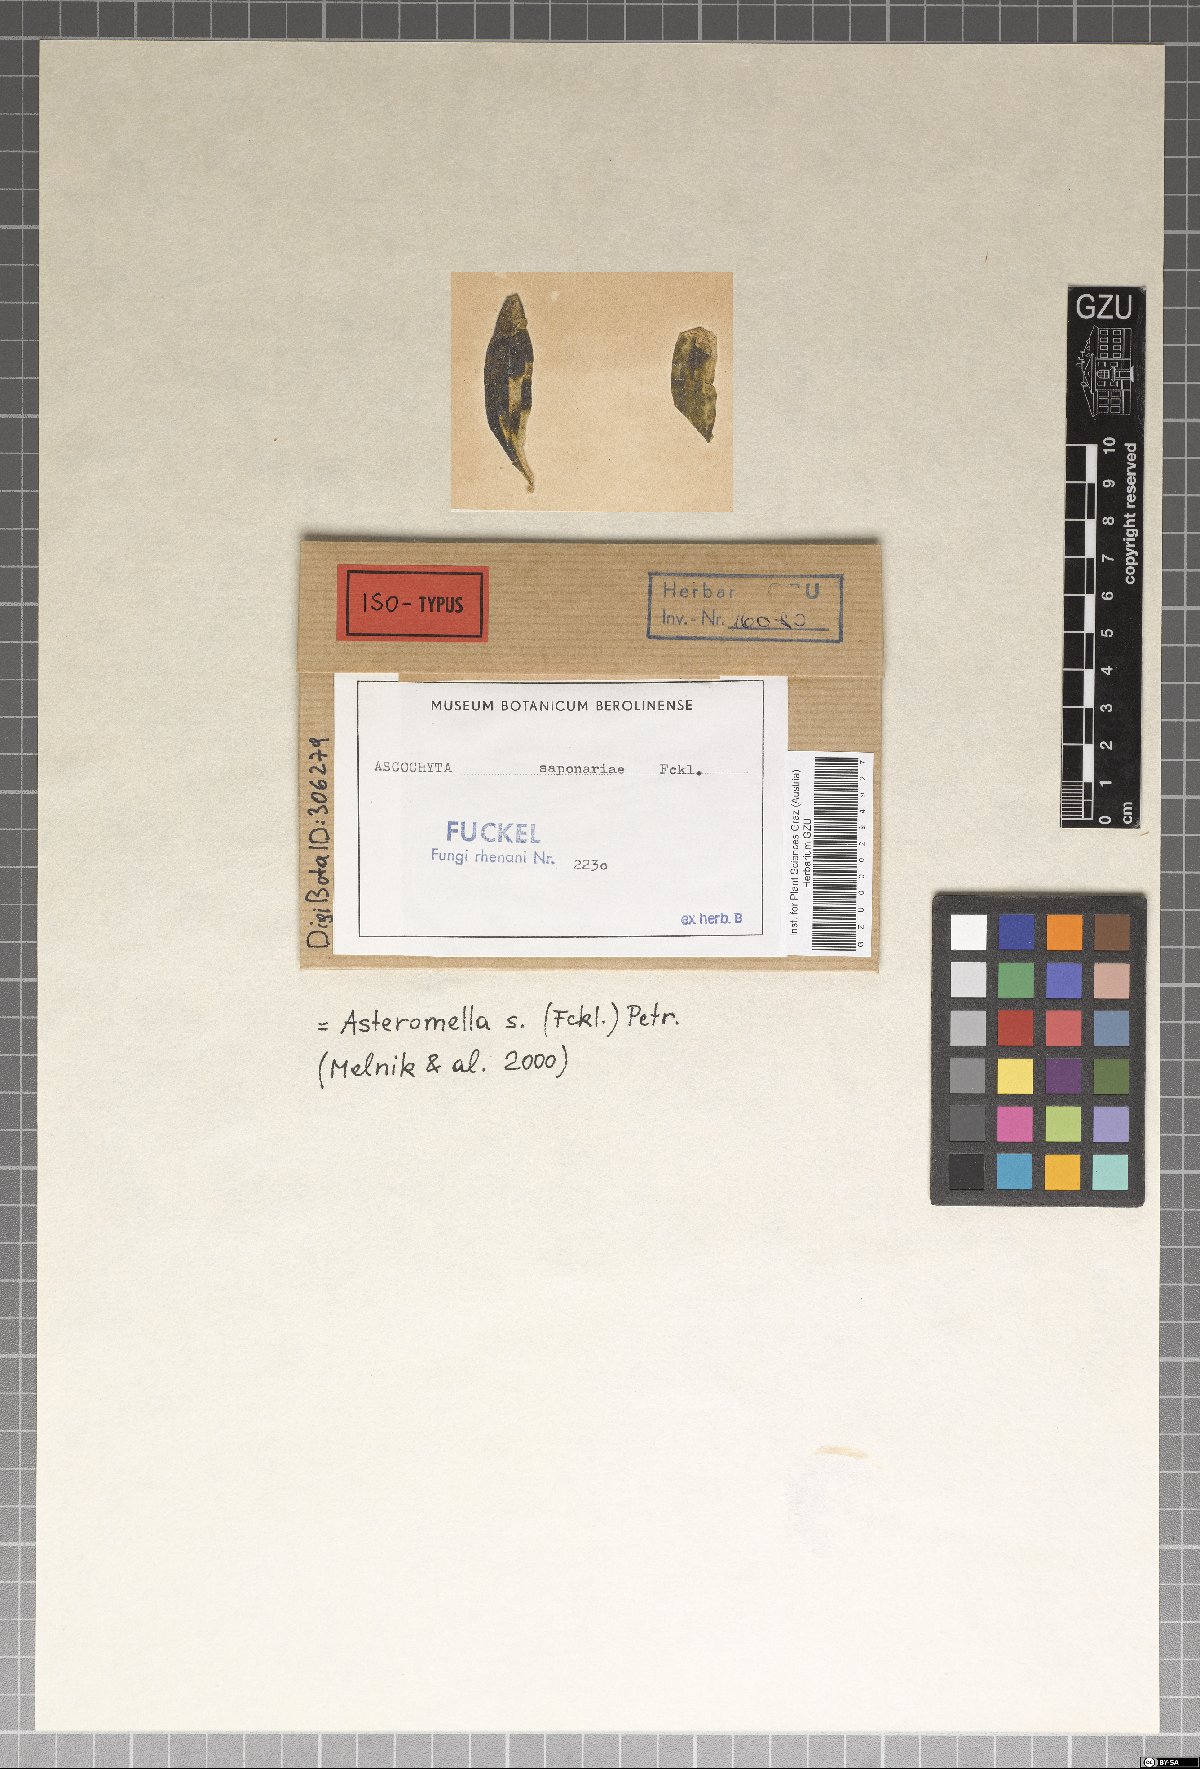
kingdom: Fungi
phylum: Ascomycota
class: Dothideomycetes
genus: Asteromella
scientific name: Asteromella saponariae
